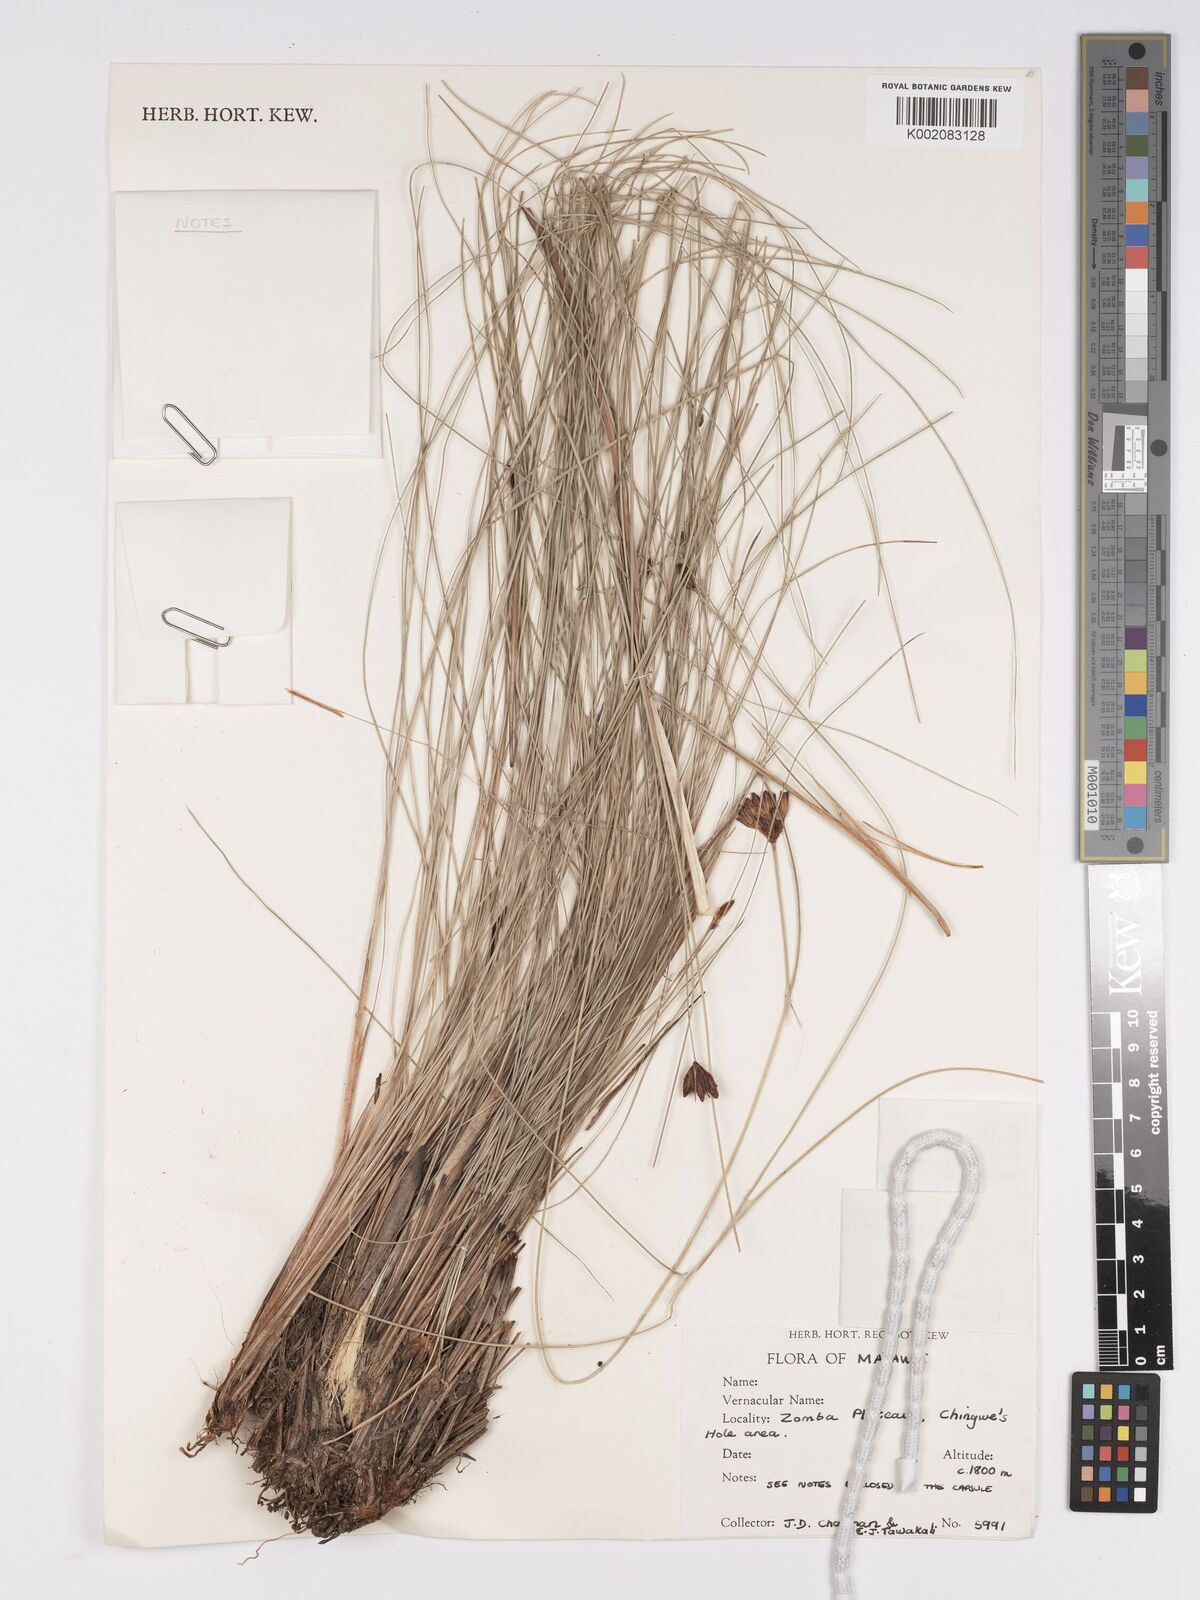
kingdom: Plantae
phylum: Tracheophyta
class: Liliopsida
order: Poales
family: Cyperaceae
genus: Bulbostylis
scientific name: Bulbostylis schoenoides
